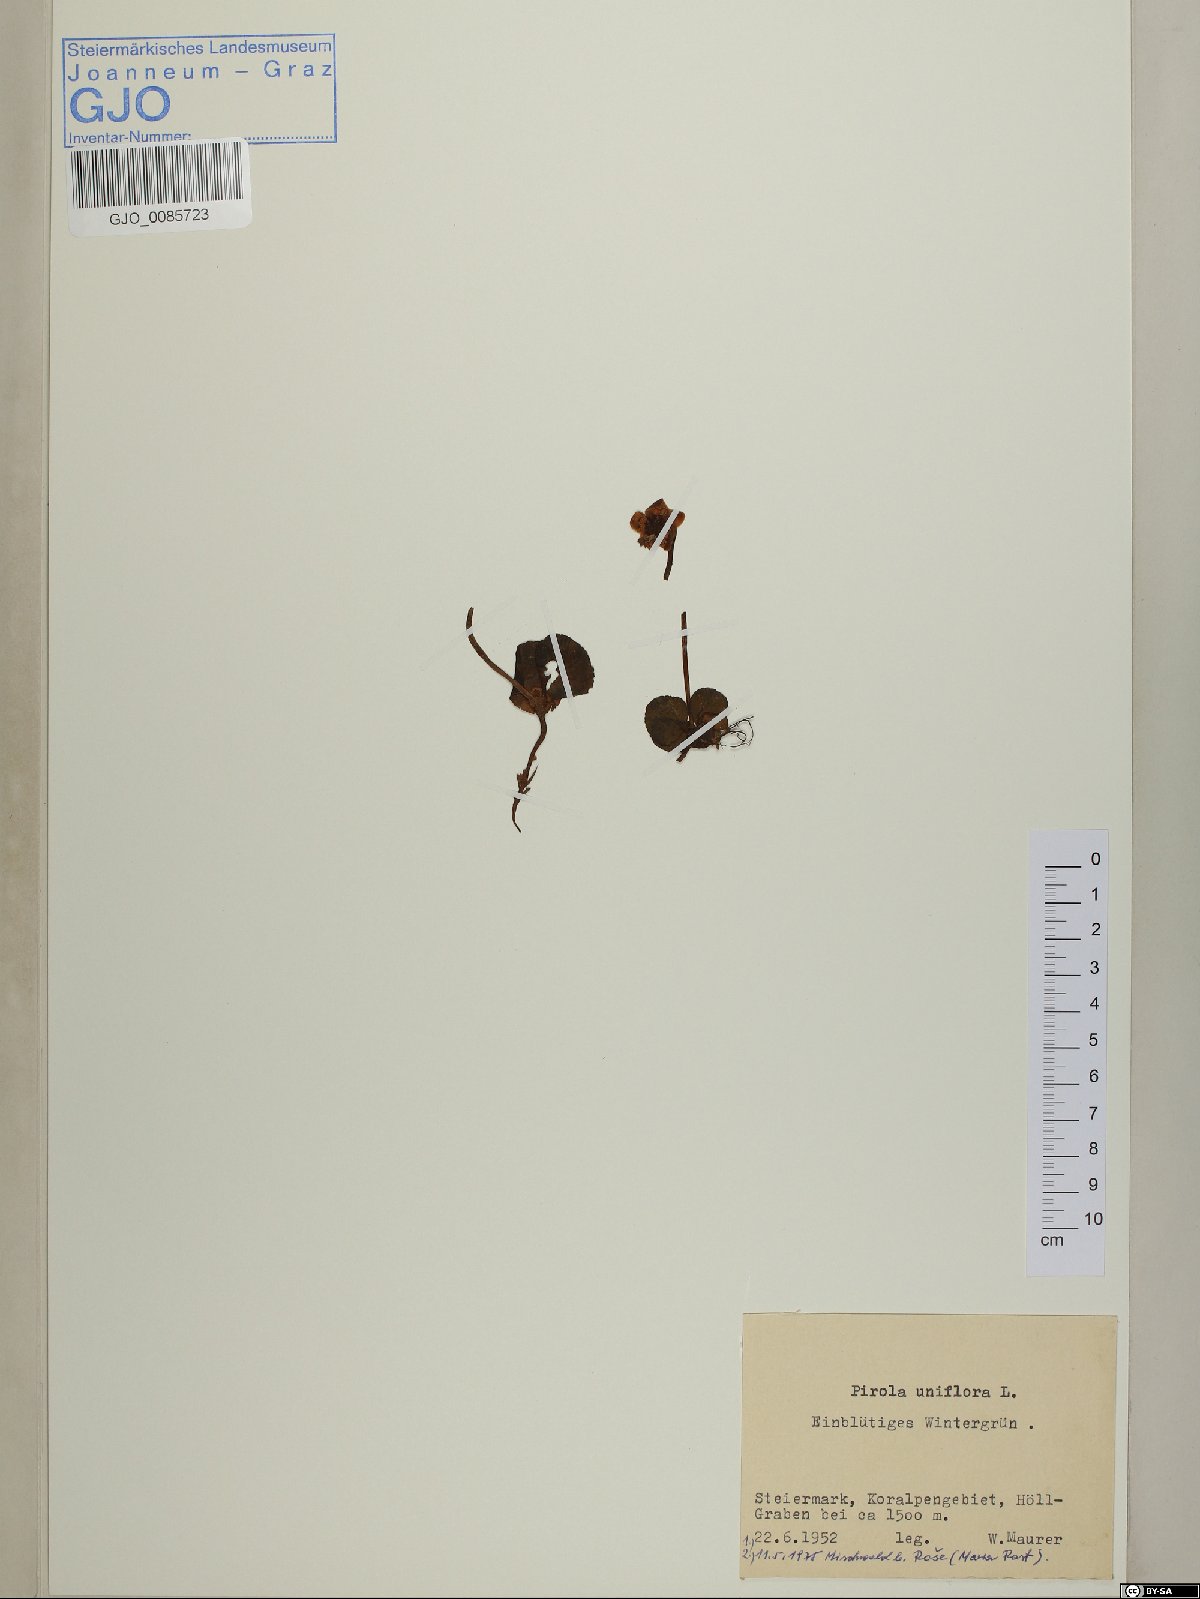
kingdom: Plantae
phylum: Tracheophyta
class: Magnoliopsida
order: Ericales
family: Ericaceae
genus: Moneses
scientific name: Moneses uniflora
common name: One-flowered wintergreen
